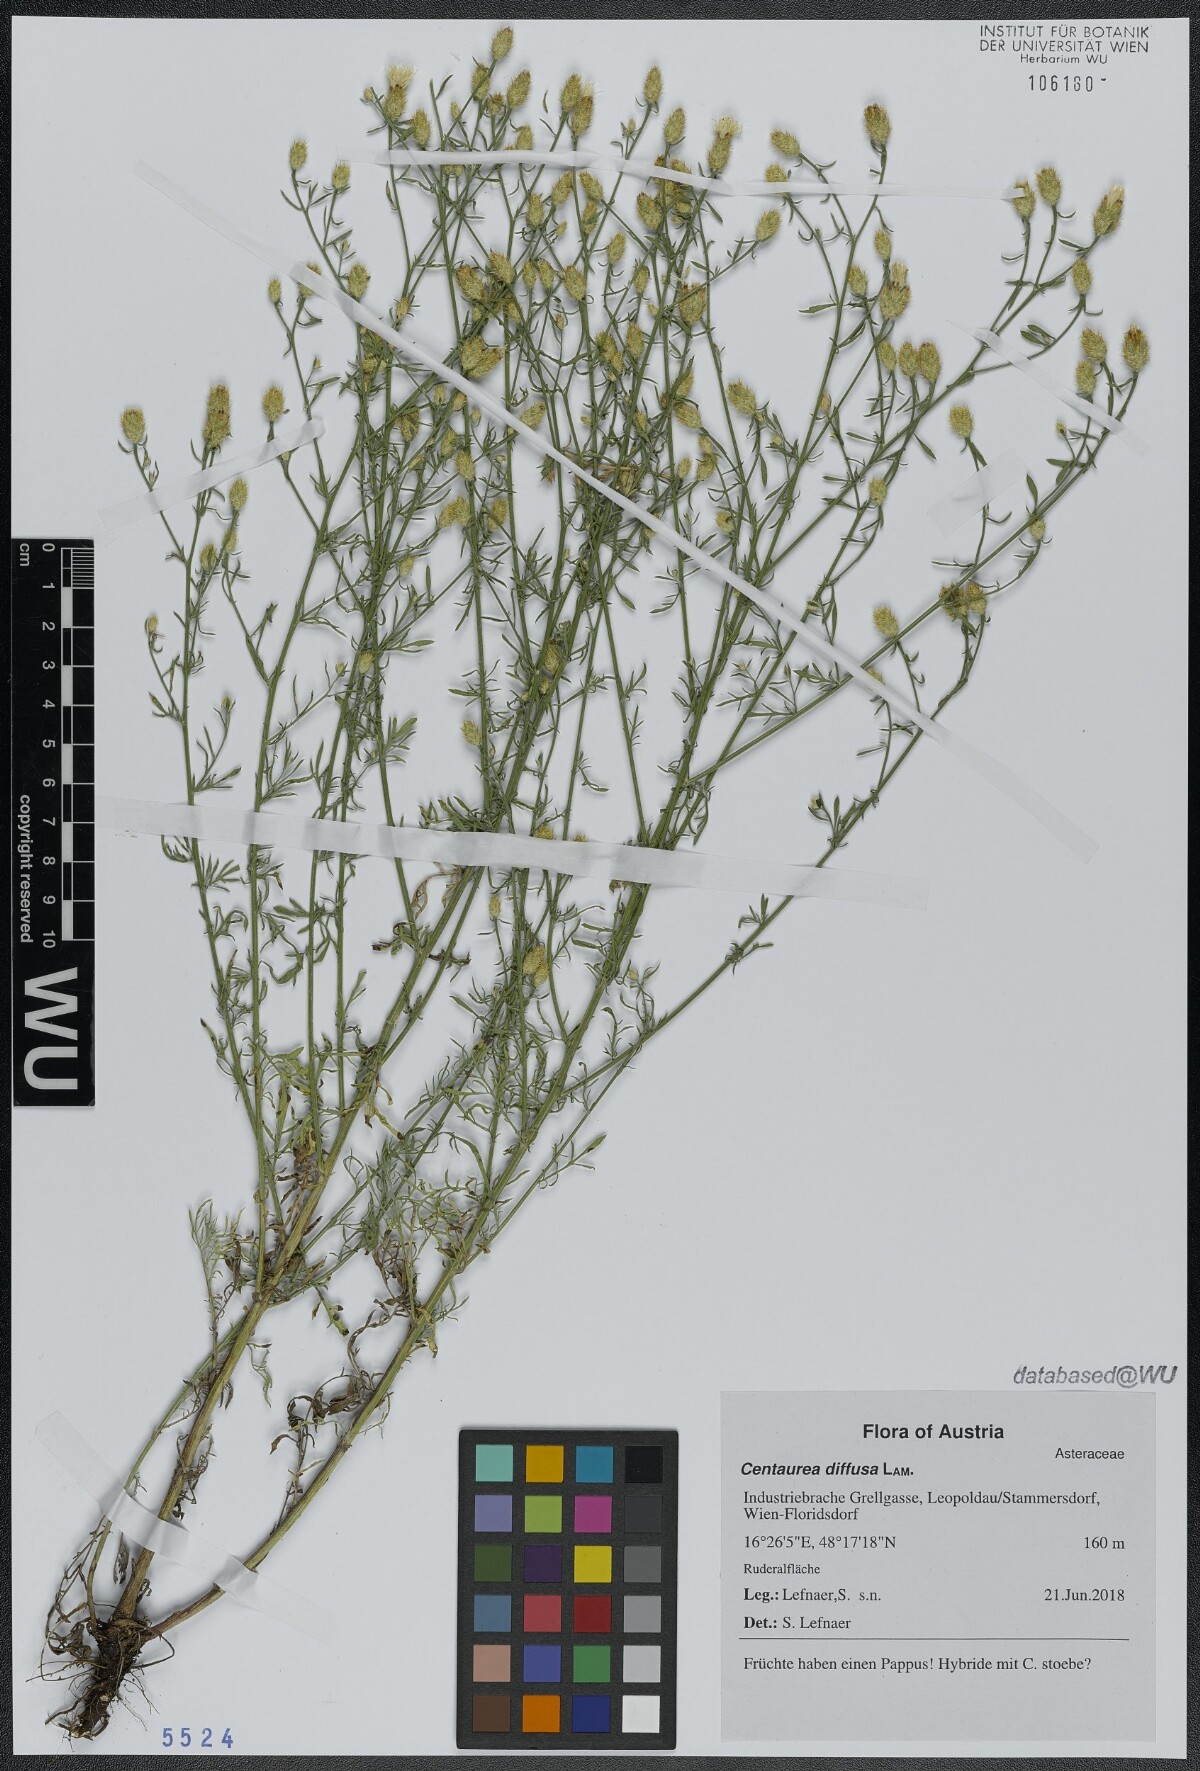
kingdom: Plantae
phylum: Tracheophyta
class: Magnoliopsida
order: Asterales
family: Asteraceae
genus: Centaurea
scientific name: Centaurea diffusa
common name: Diffuse knapweed
